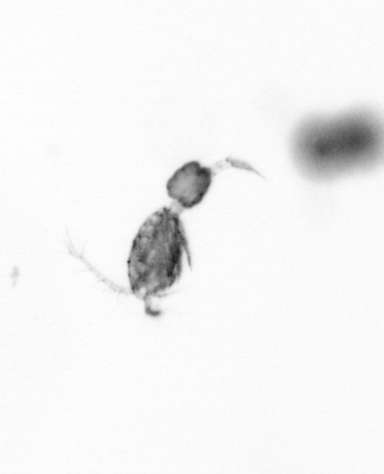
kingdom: Animalia
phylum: Arthropoda
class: Copepoda
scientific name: Copepoda
